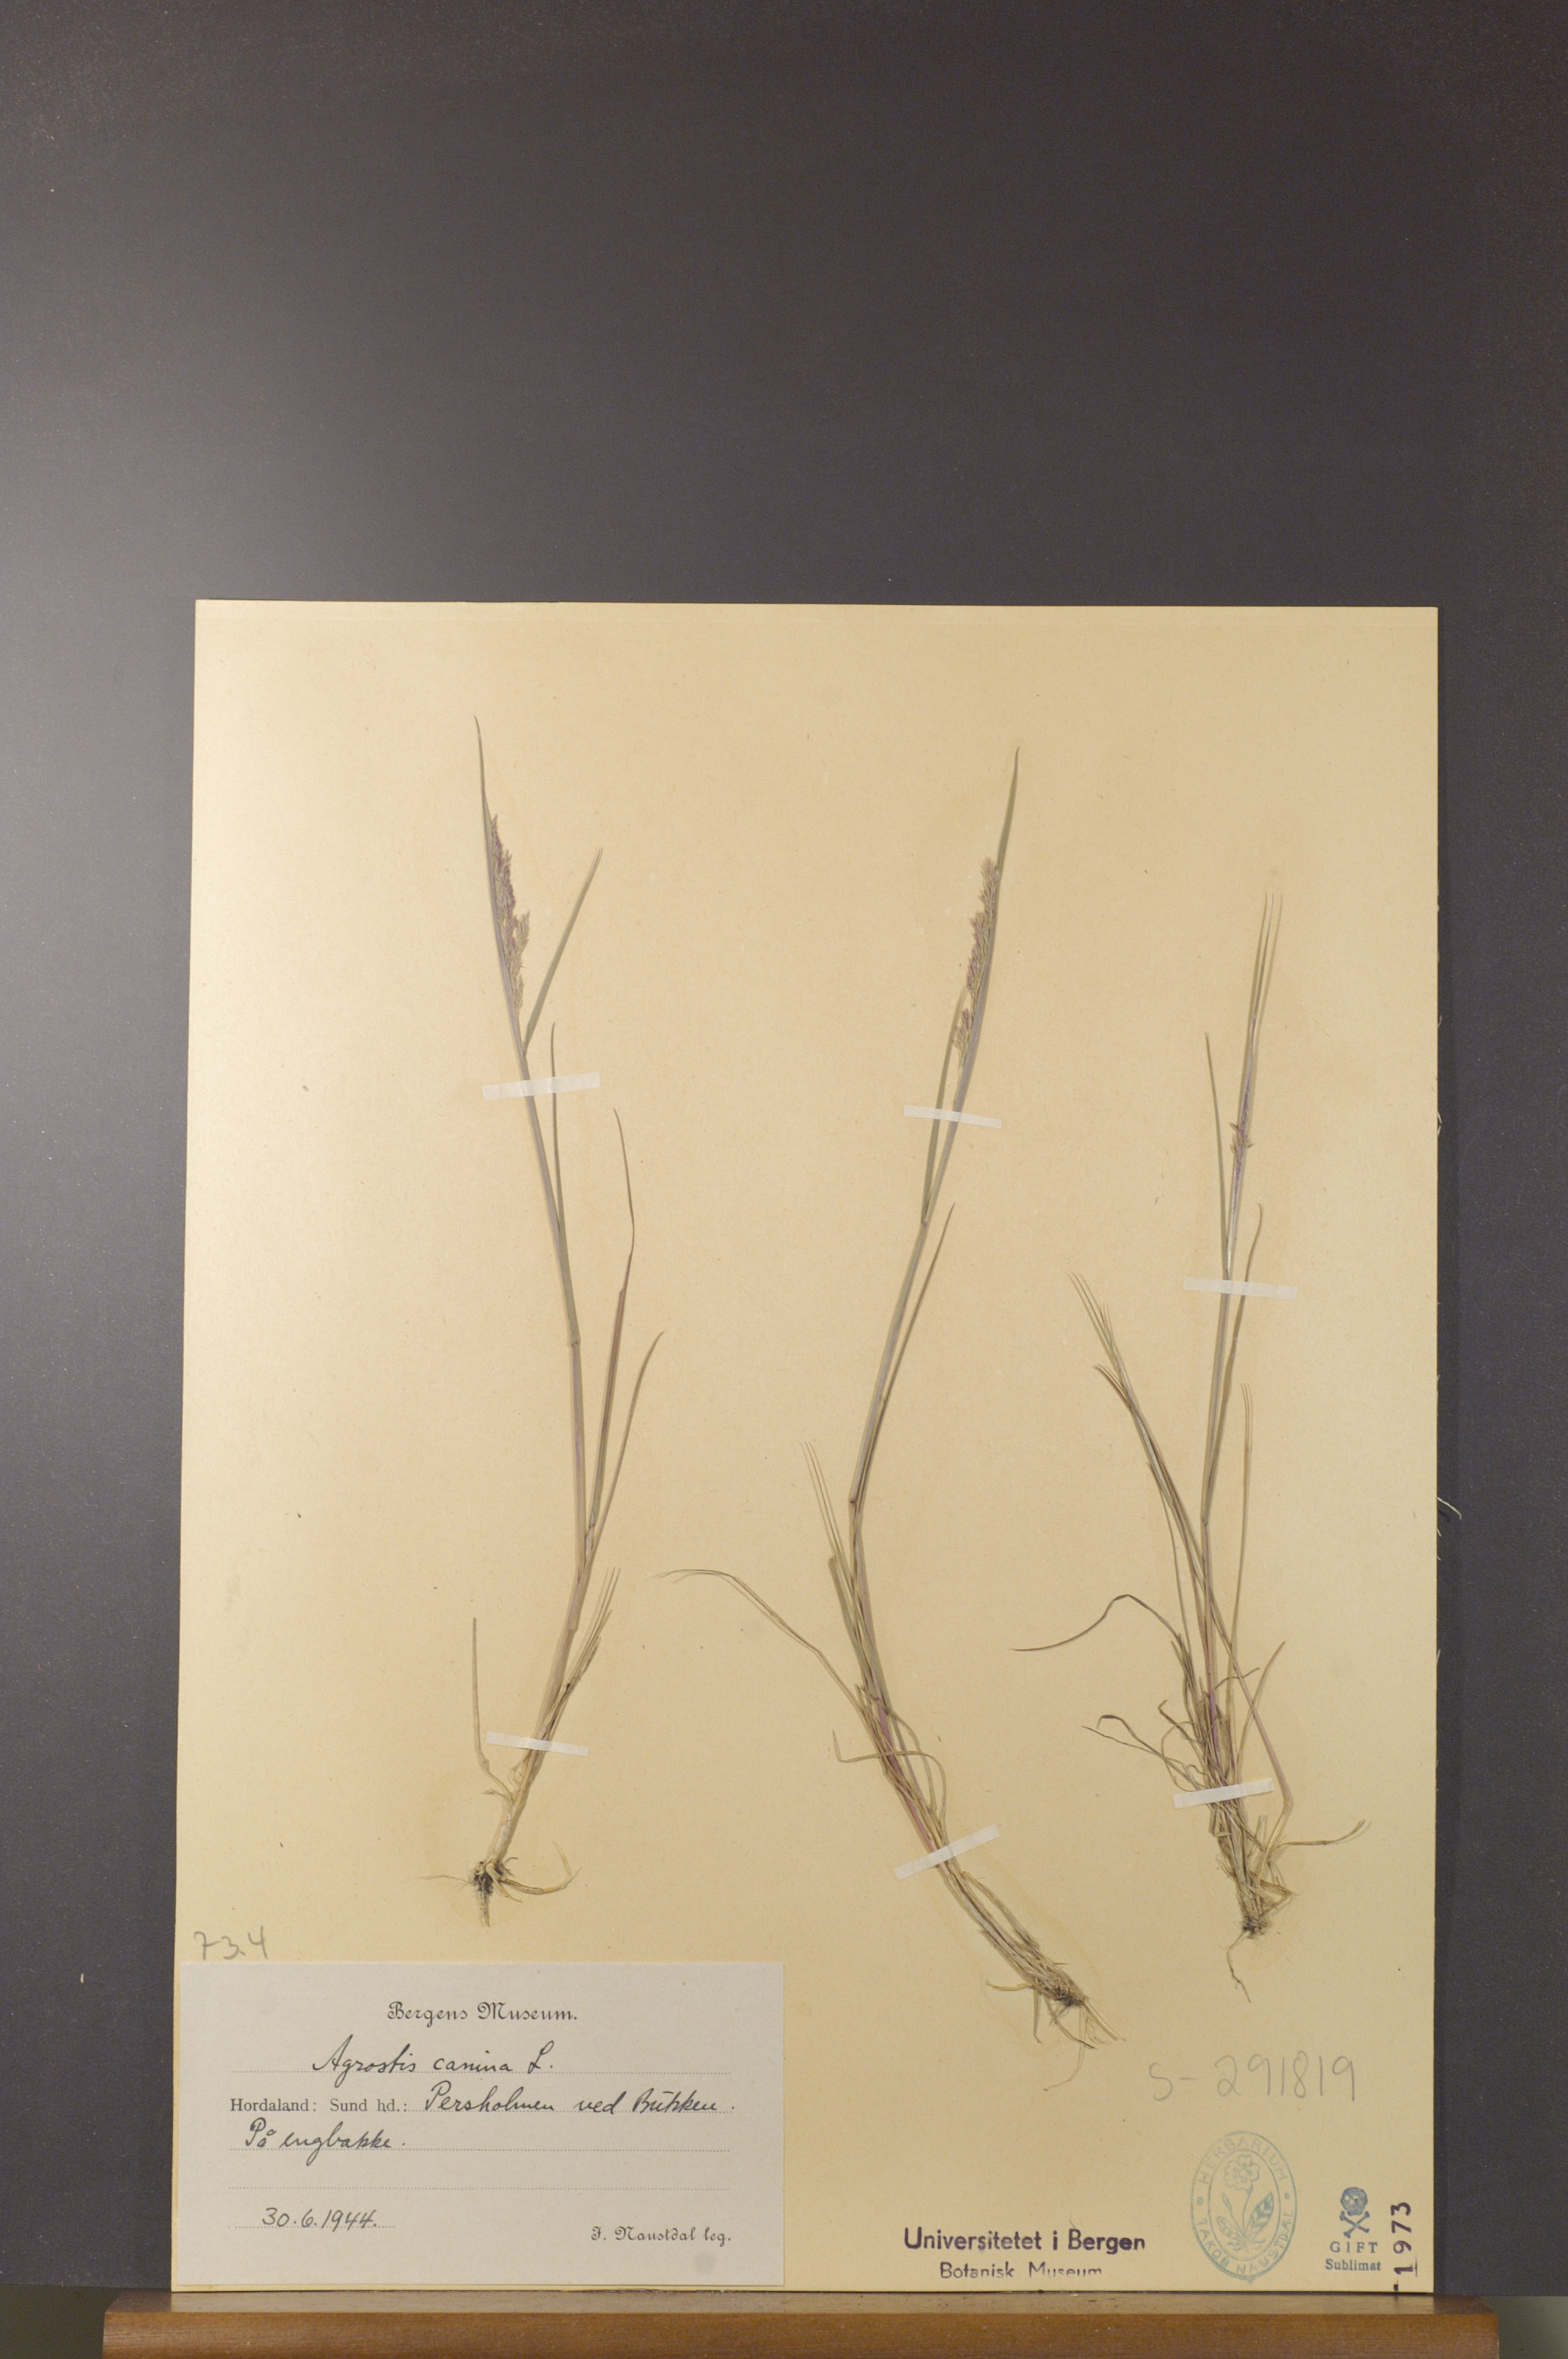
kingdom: Plantae
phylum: Tracheophyta
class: Liliopsida
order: Poales
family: Poaceae
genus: Agrostis
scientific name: Agrostis canina
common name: Velvet bent
